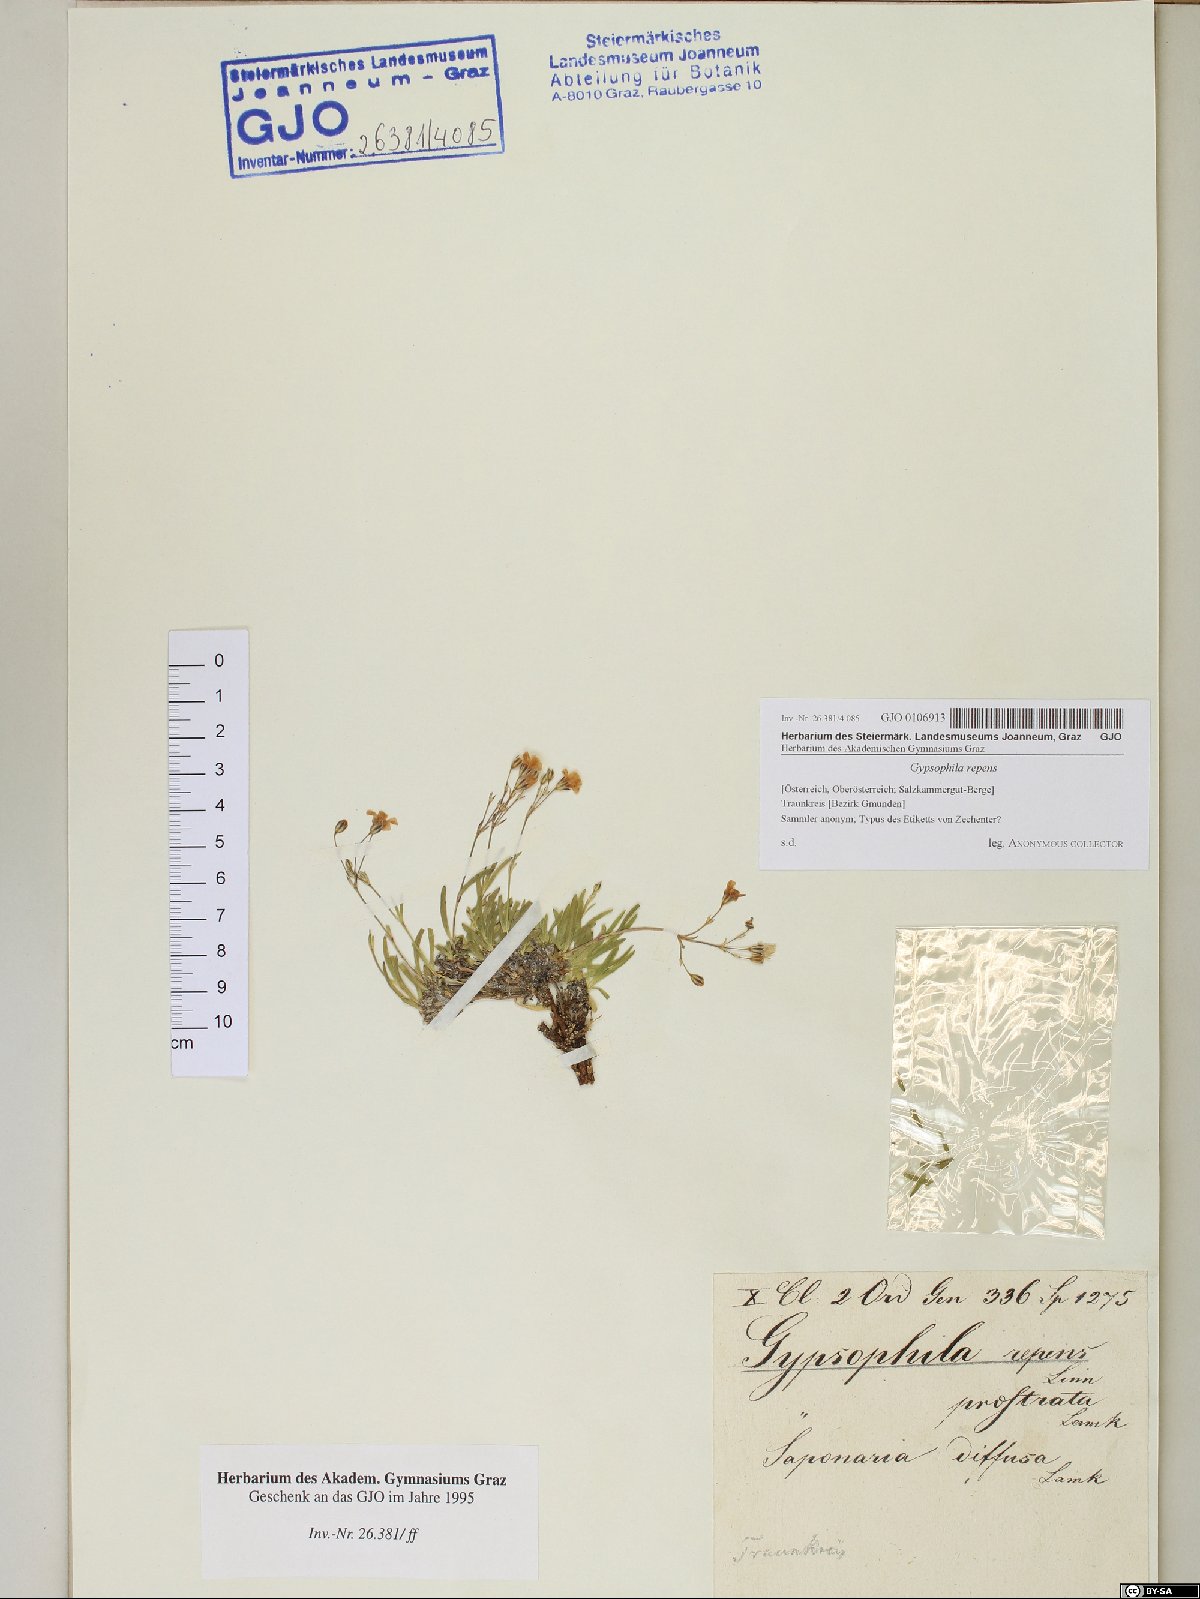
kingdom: Plantae
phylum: Tracheophyta
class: Magnoliopsida
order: Caryophyllales
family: Caryophyllaceae
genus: Gypsophila
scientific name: Gypsophila repens
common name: Creeping baby's-breath
